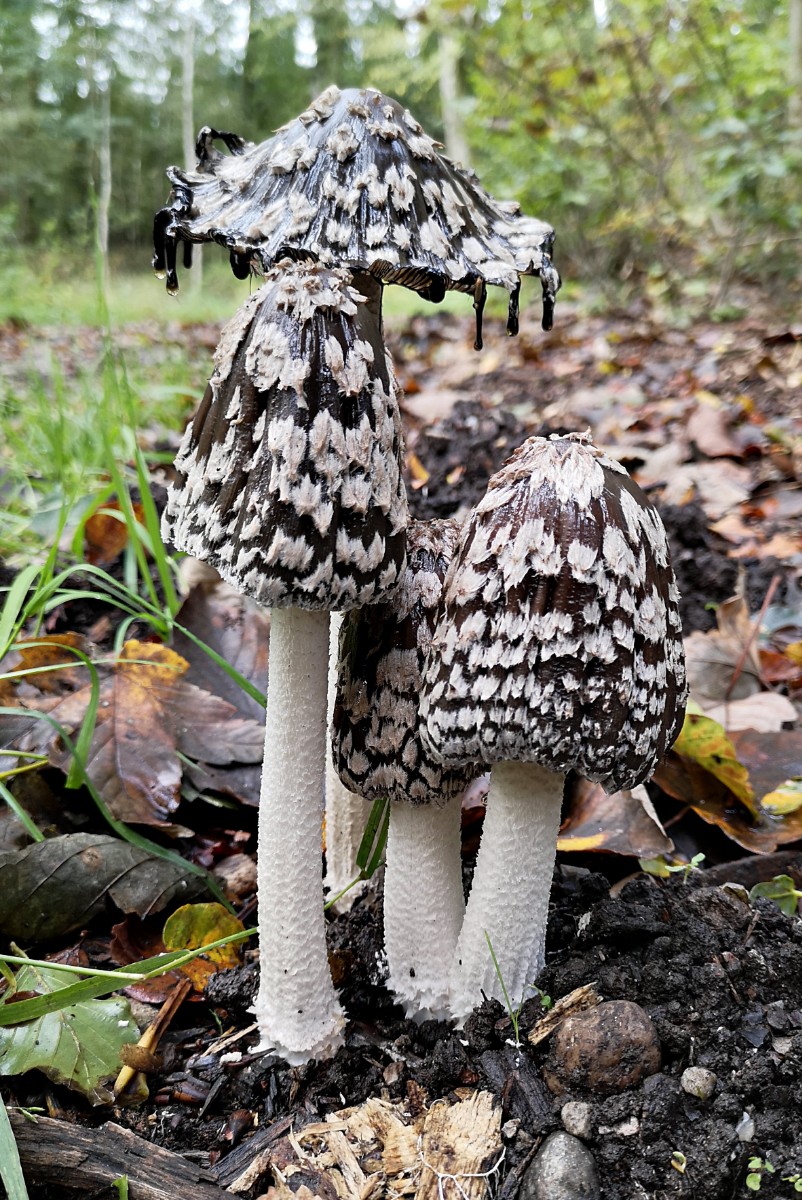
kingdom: Fungi
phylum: Basidiomycota
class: Agaricomycetes
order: Agaricales
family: Psathyrellaceae
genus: Coprinopsis
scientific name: Coprinopsis picacea
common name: skade-blækhat
